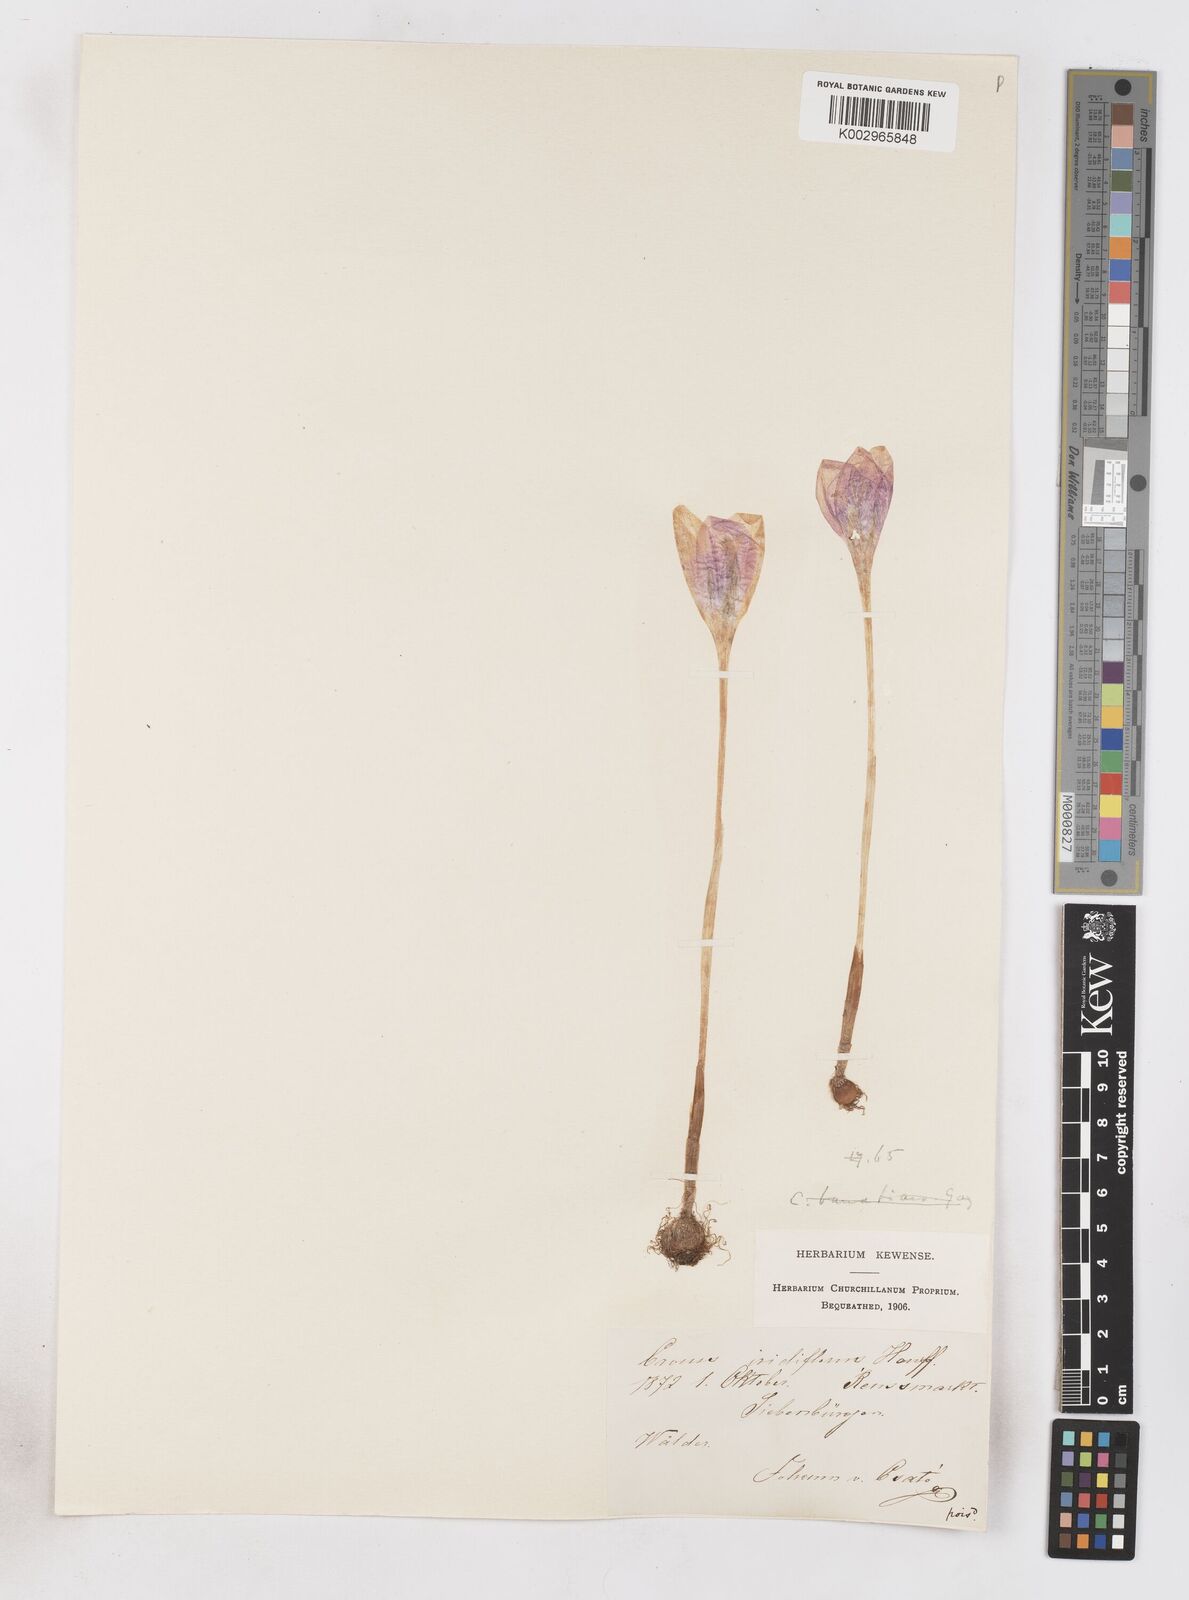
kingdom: Plantae
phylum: Tracheophyta
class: Liliopsida
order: Asparagales
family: Iridaceae
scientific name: Iridaceae
